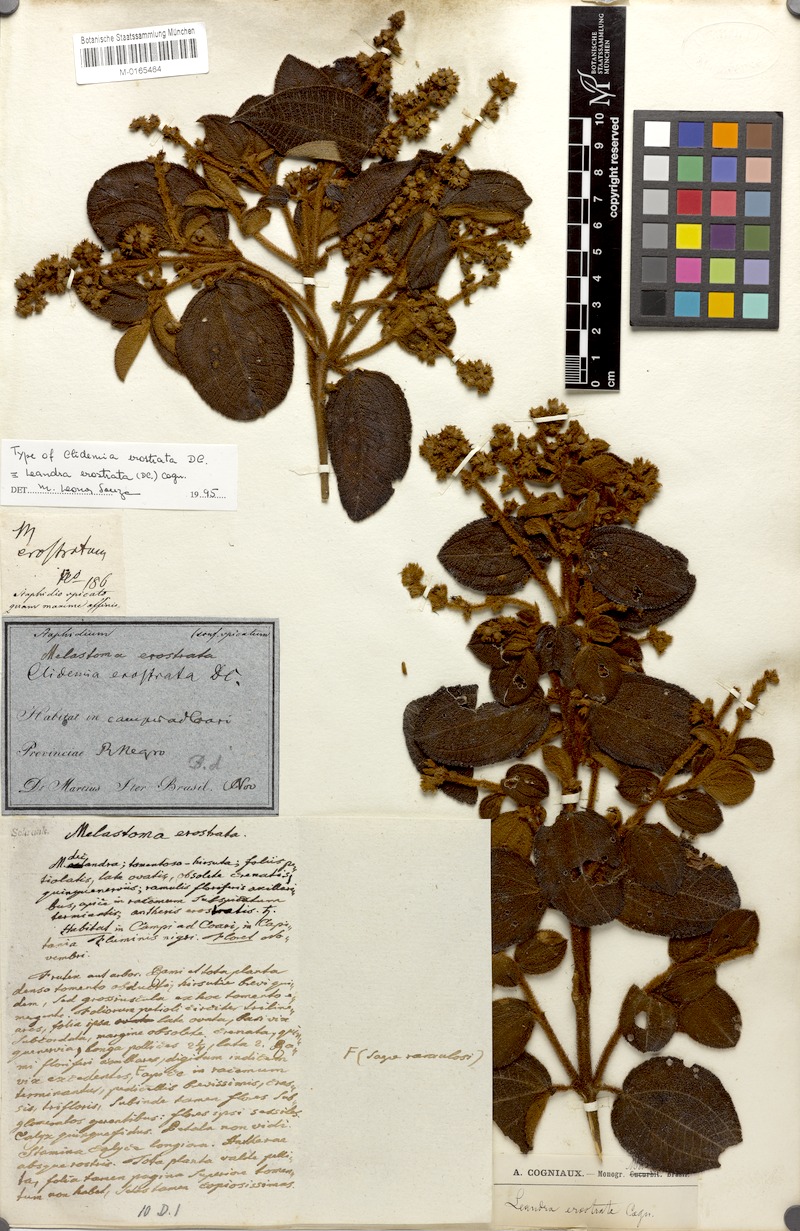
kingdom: Plantae
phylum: Tracheophyta
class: Magnoliopsida
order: Myrtales
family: Melastomataceae
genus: Miconia
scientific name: Miconia erostrata
